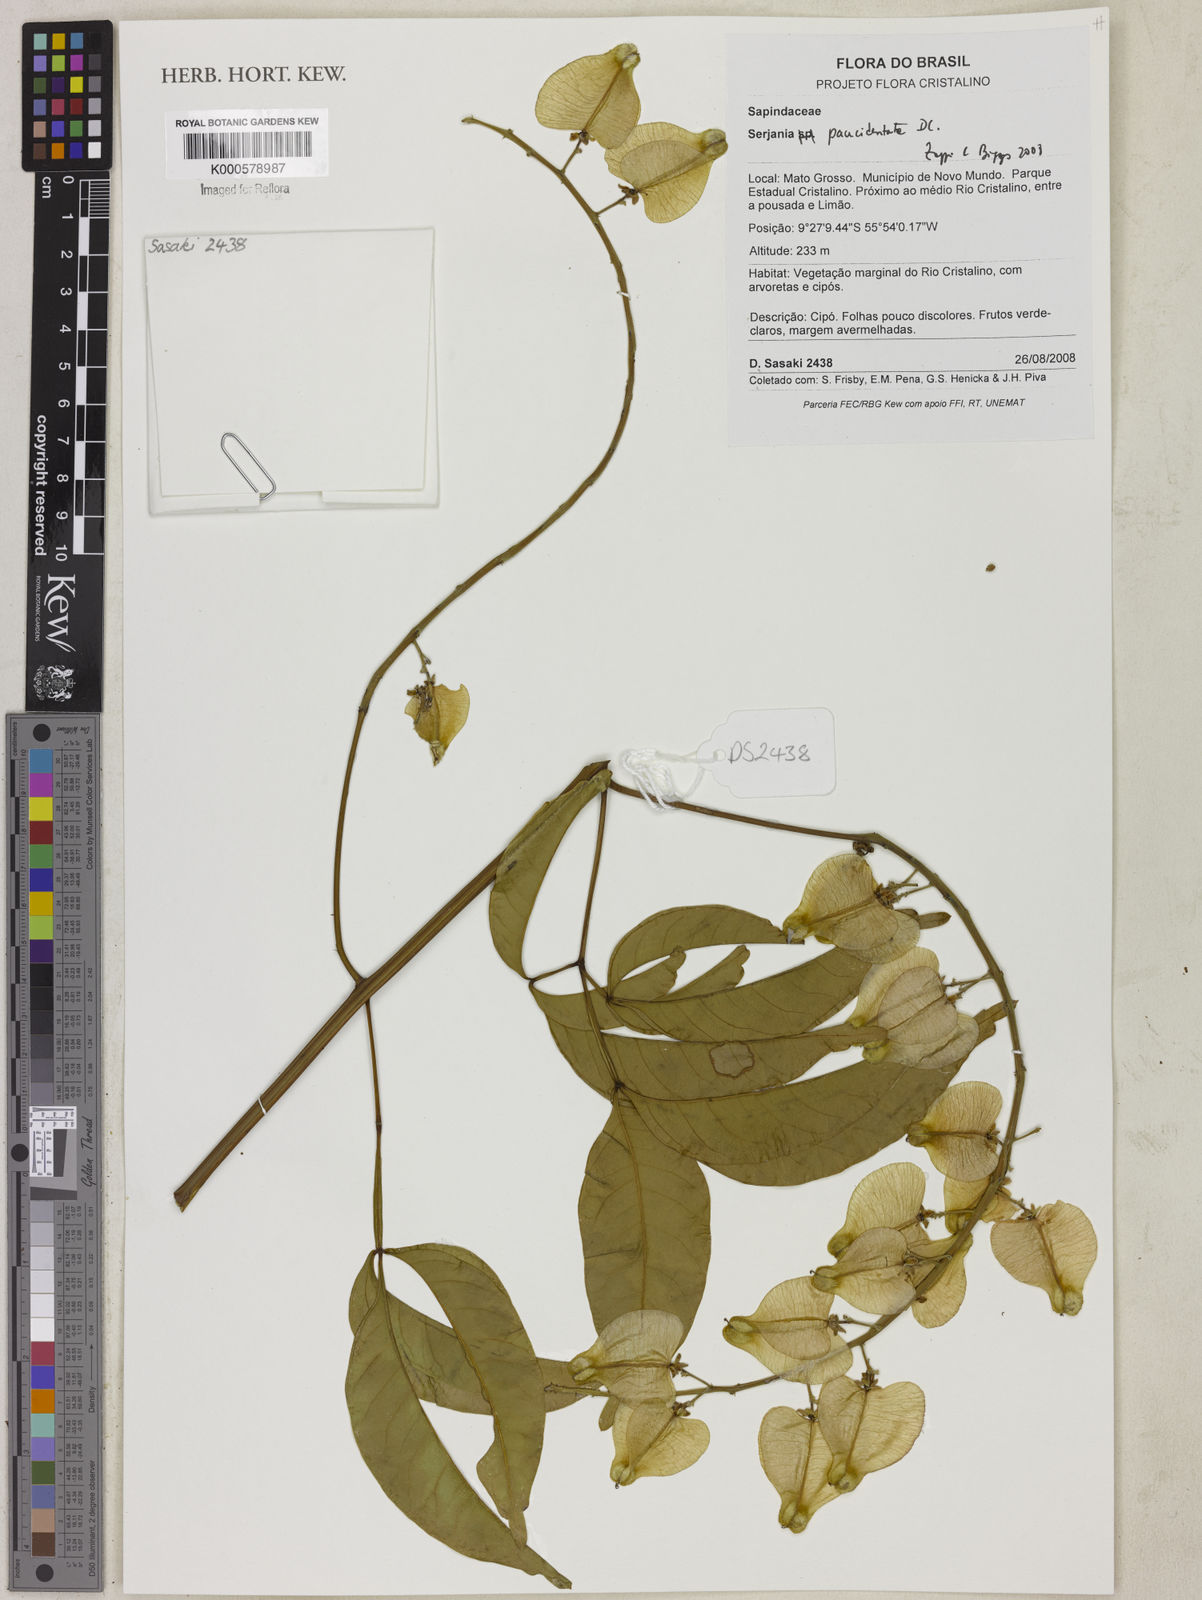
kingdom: Plantae
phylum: Tracheophyta
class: Magnoliopsida
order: Sapindales
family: Sapindaceae
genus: Serjania
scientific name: Serjania paucidentata
